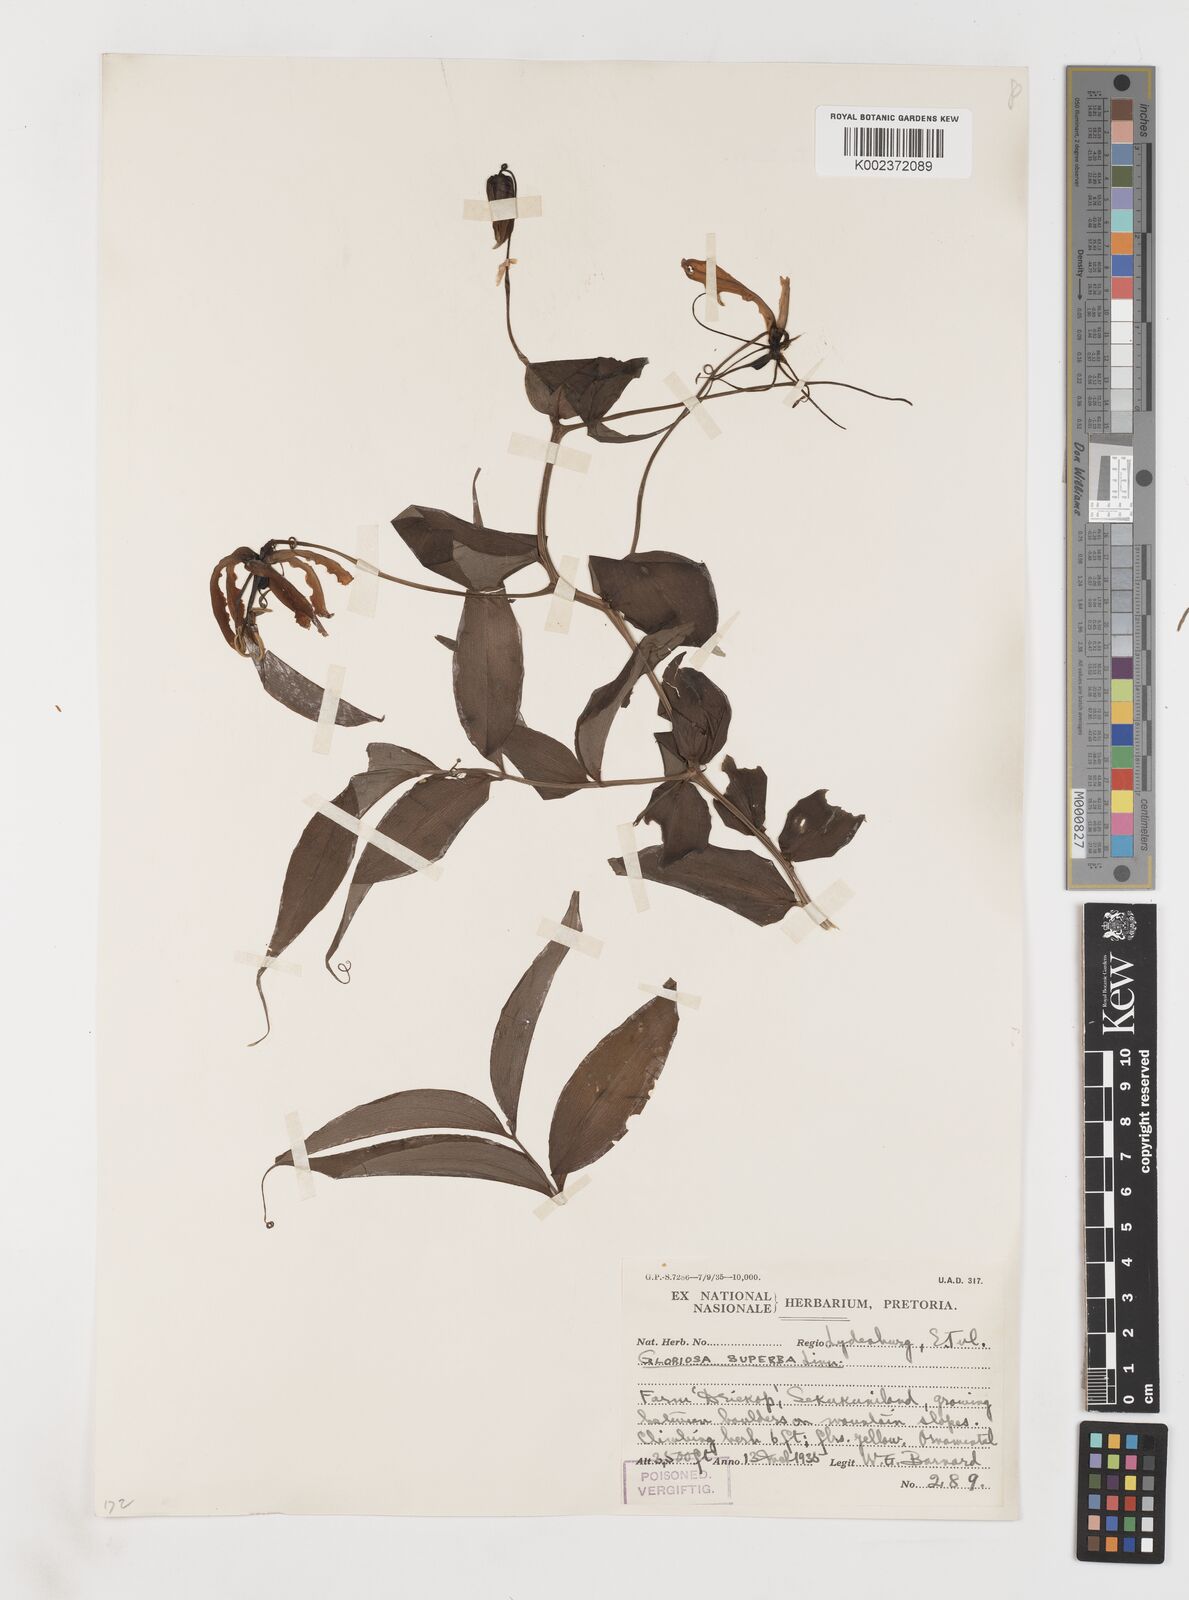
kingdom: Plantae
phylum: Tracheophyta
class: Liliopsida
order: Liliales
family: Colchicaceae
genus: Gloriosa
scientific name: Gloriosa superba
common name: Flame lily
